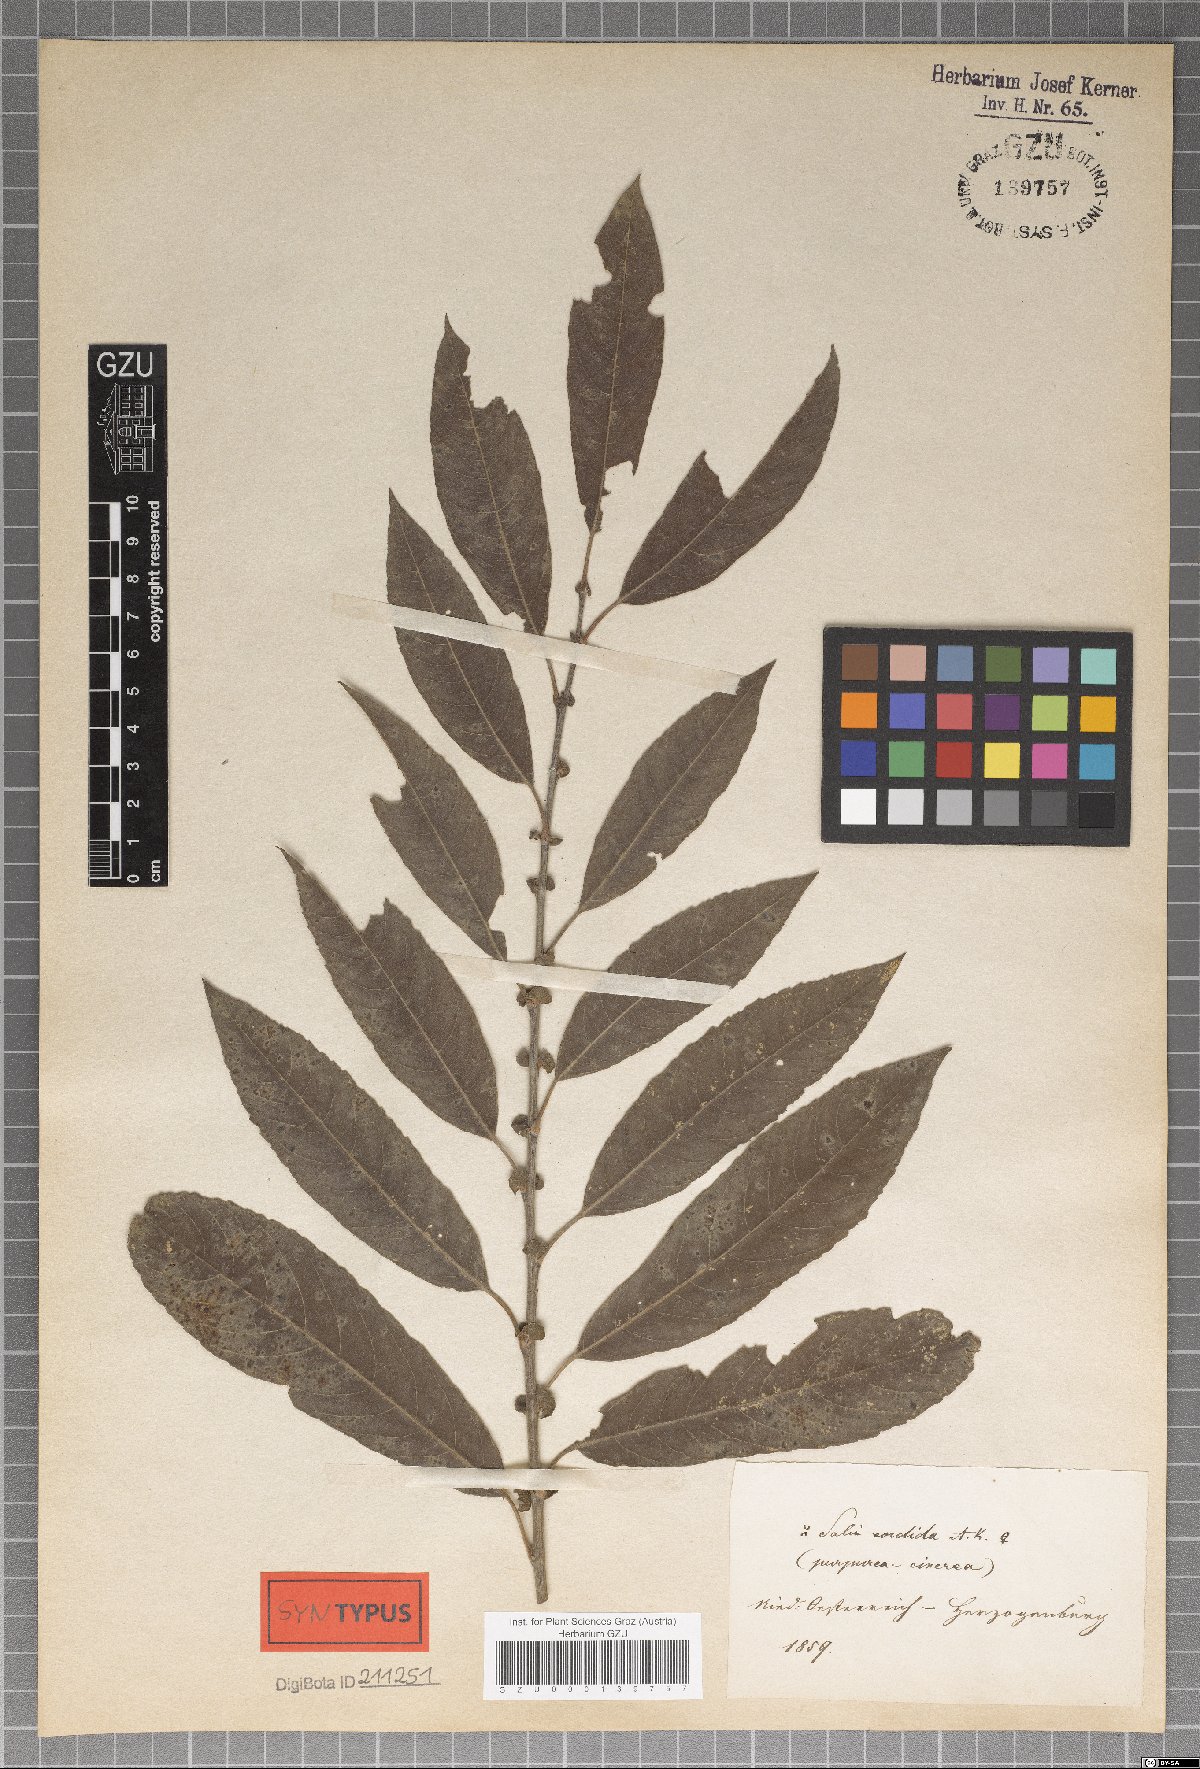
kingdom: Plantae
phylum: Tracheophyta
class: Magnoliopsida
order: Malpighiales
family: Salicaceae
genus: Salix
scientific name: Salix sordida
